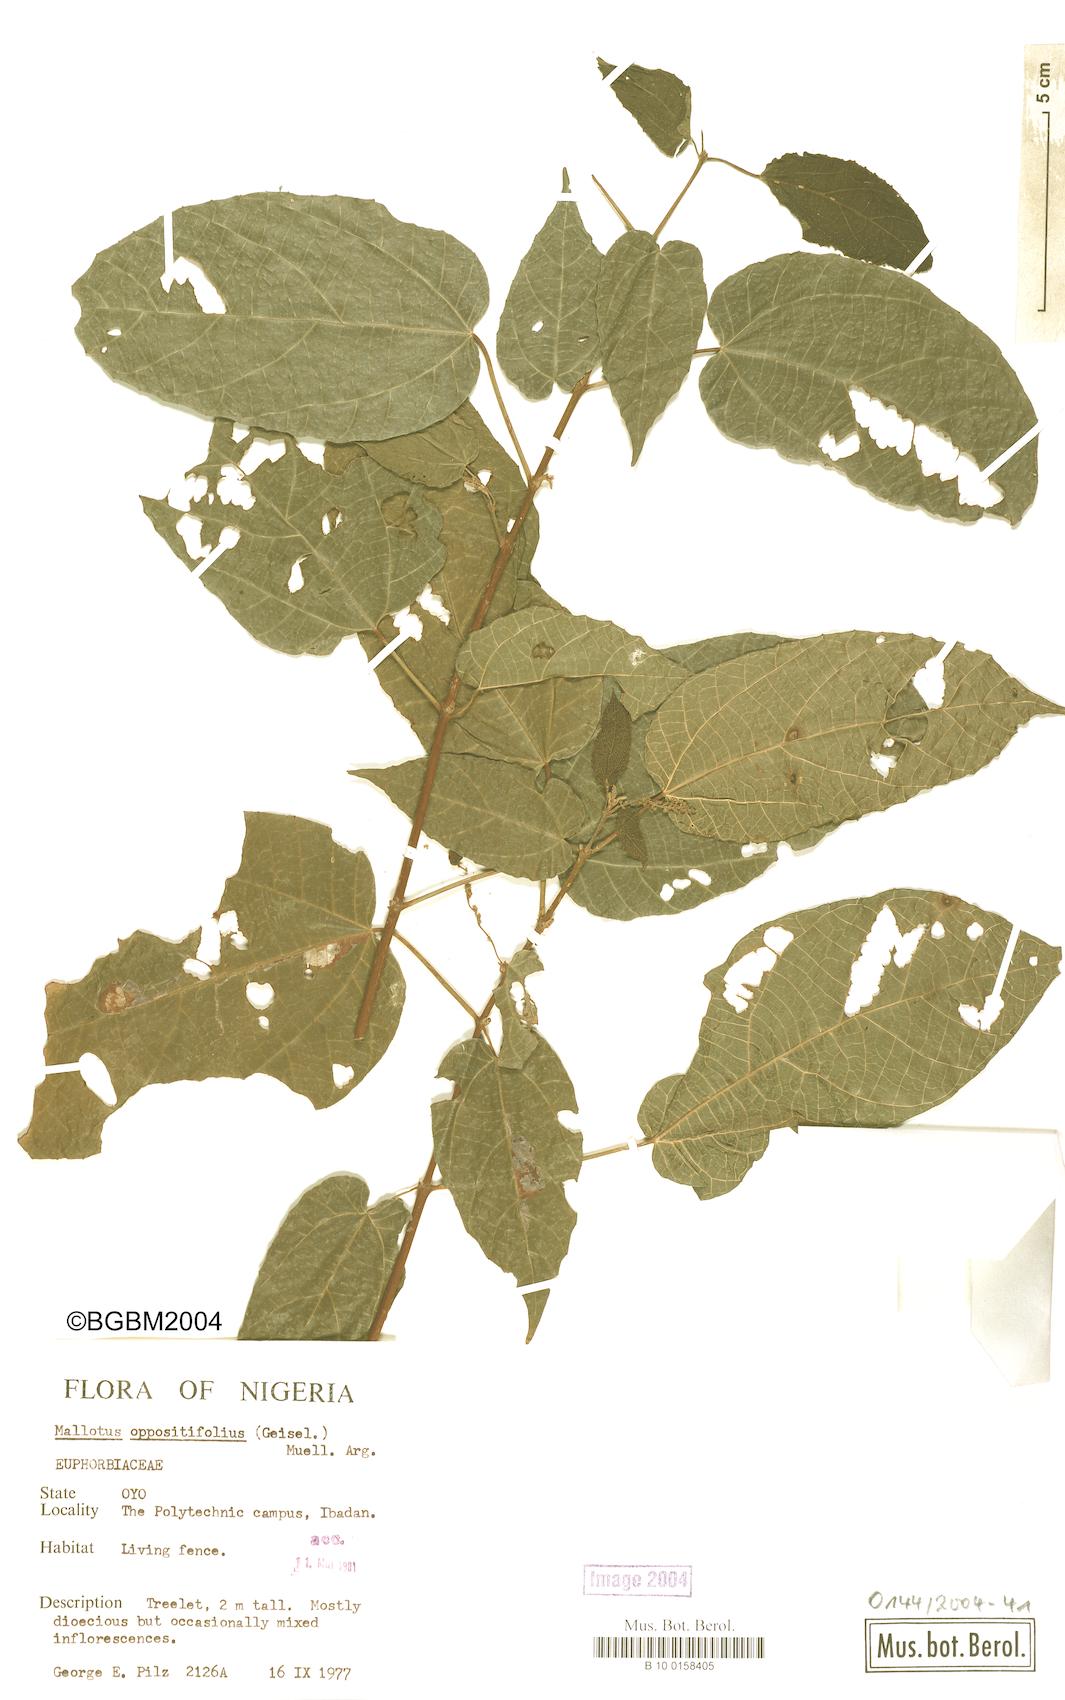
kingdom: Plantae
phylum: Tracheophyta
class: Magnoliopsida
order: Malpighiales
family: Euphorbiaceae
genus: Mallotus
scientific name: Mallotus oppositifolius
